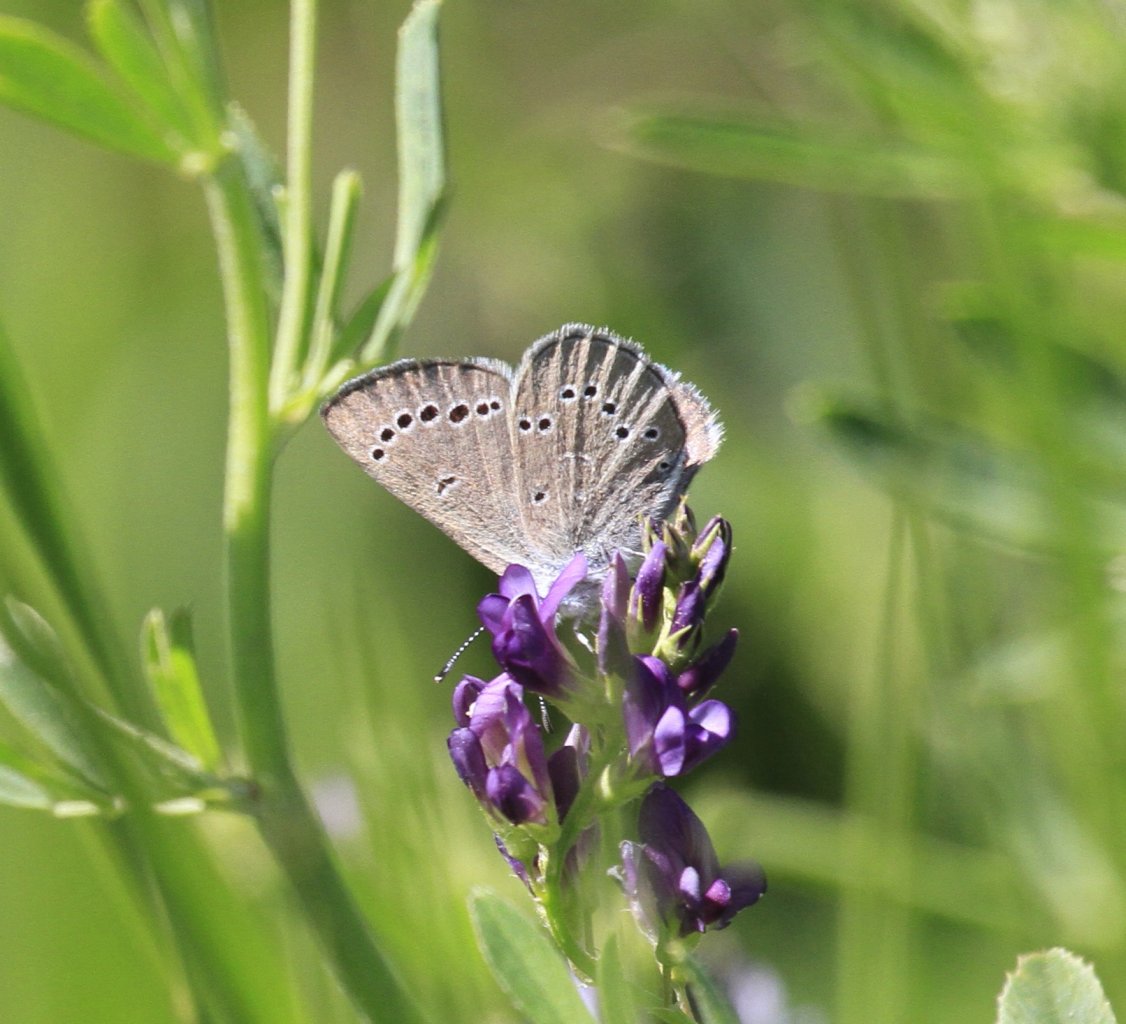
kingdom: Animalia
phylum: Arthropoda
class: Insecta
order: Lepidoptera
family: Lycaenidae
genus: Glaucopsyche
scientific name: Glaucopsyche lygdamus
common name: Silvery Blue
